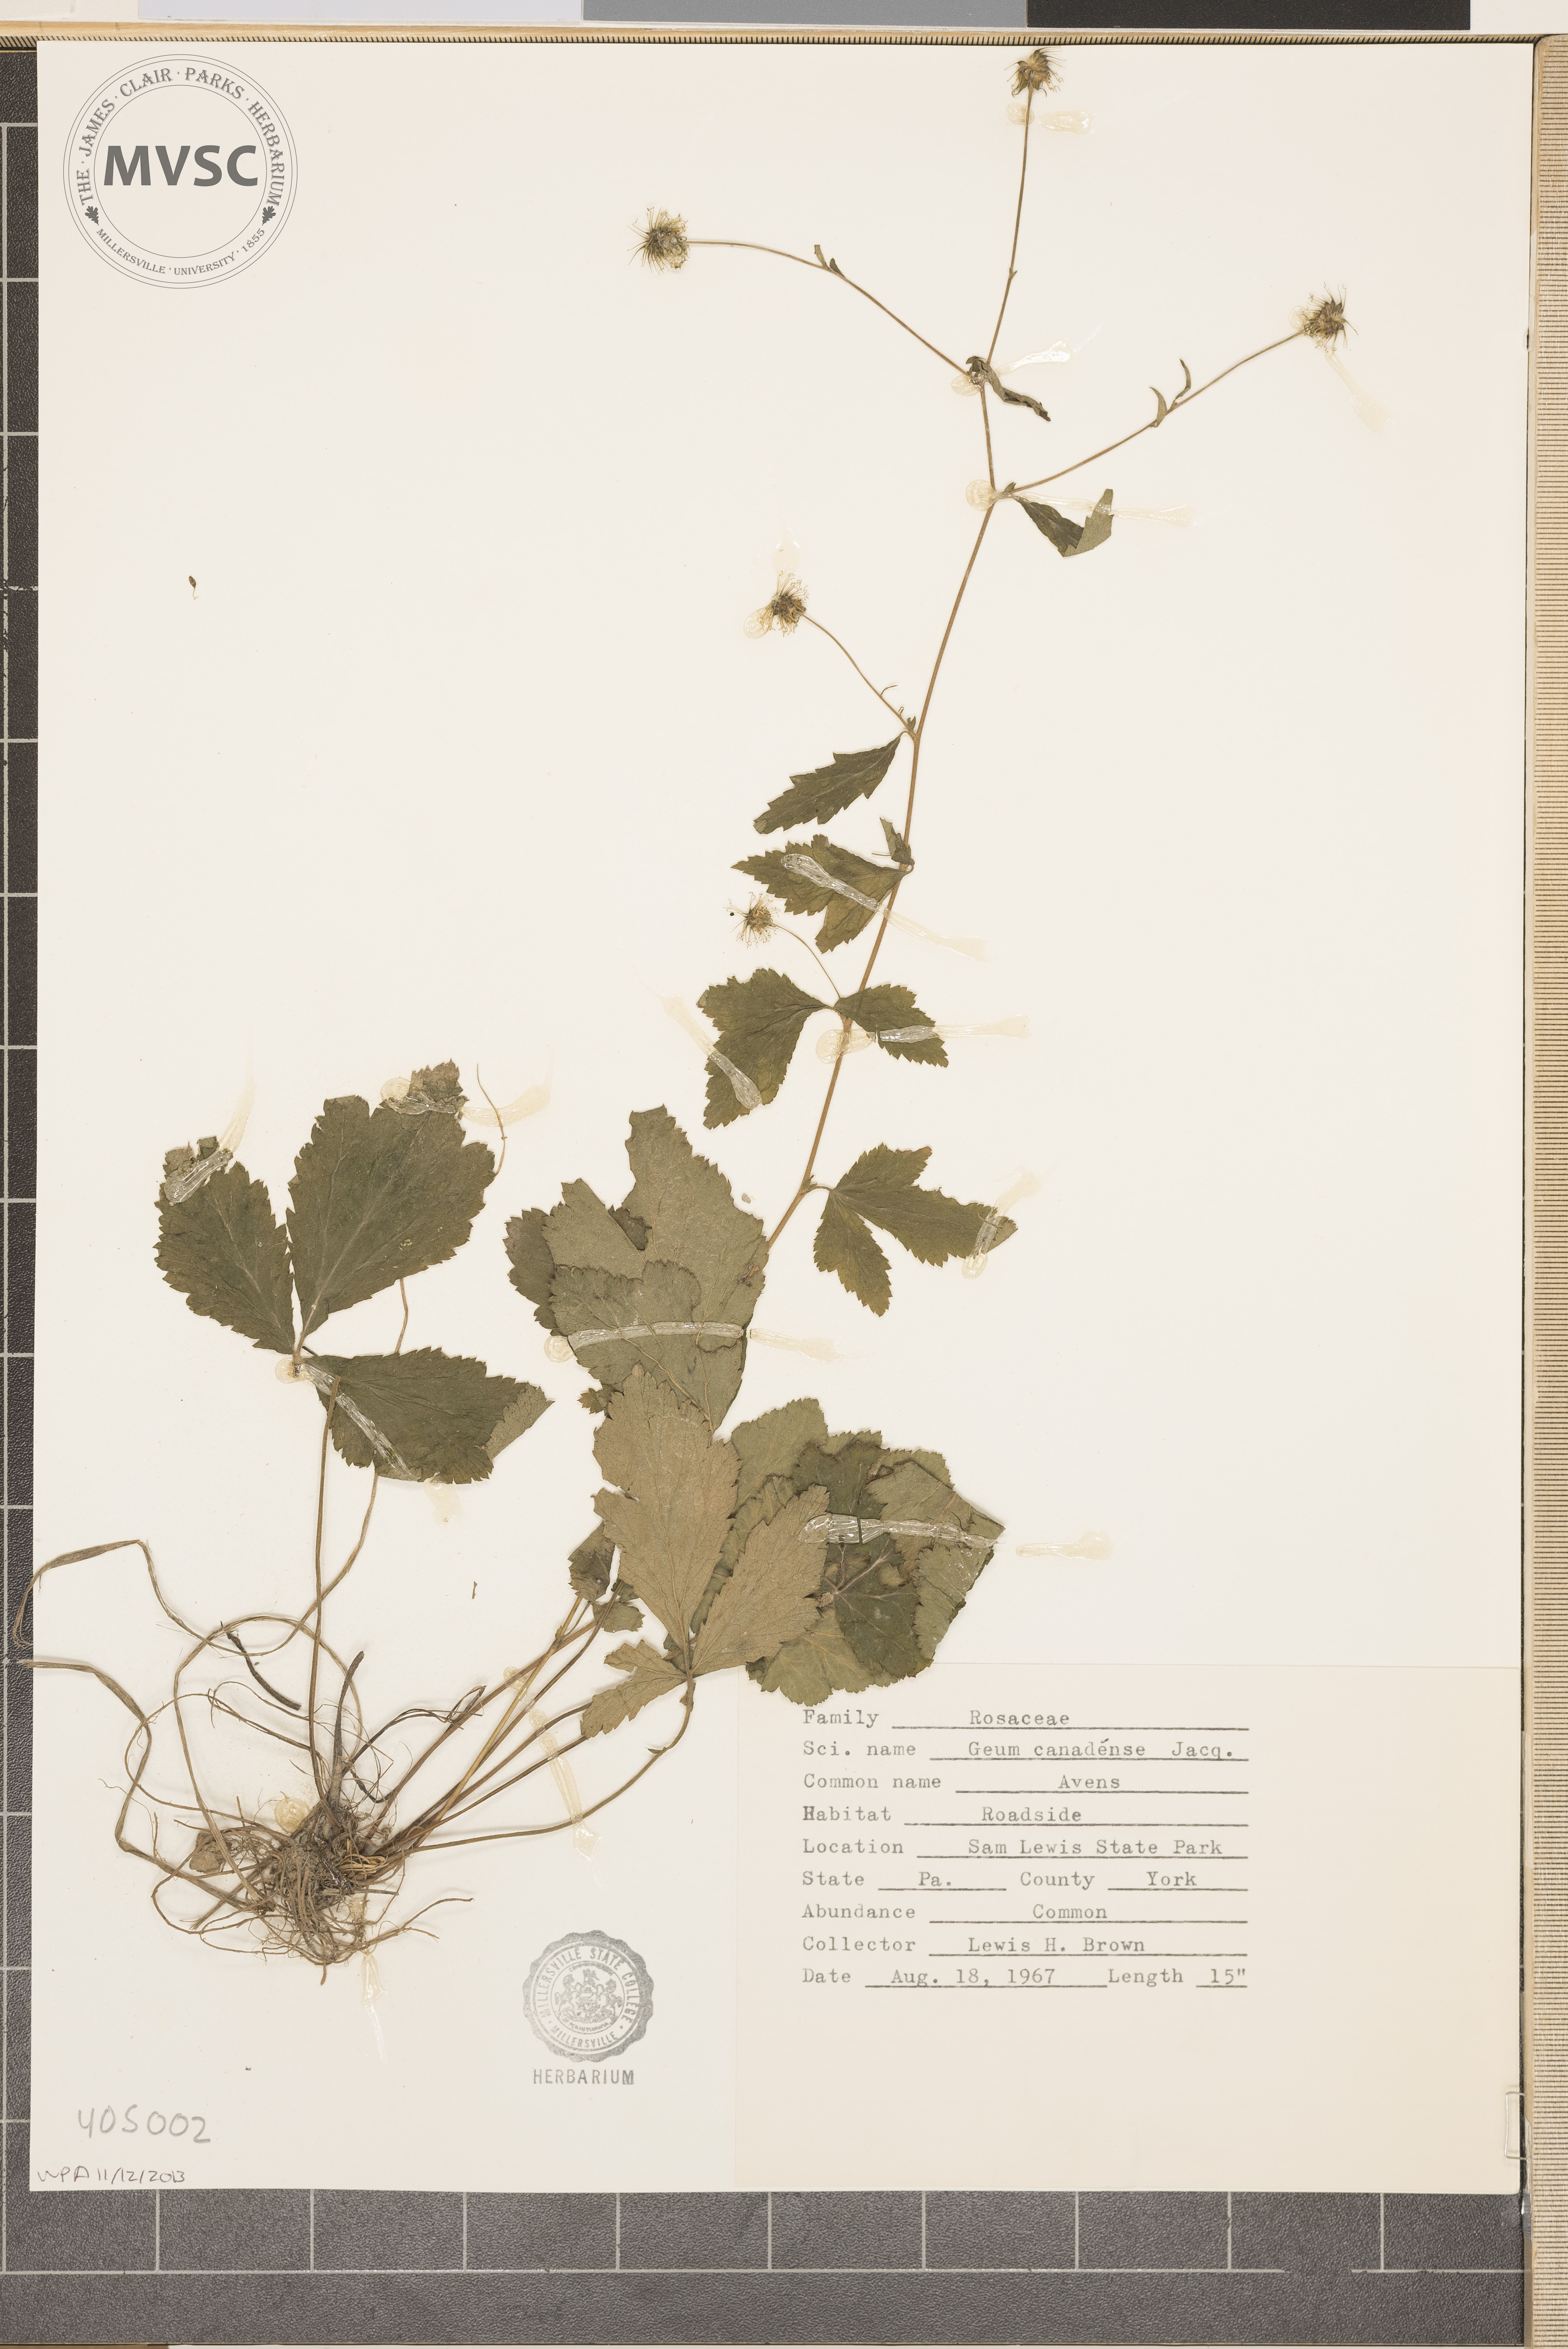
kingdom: Plantae
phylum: Tracheophyta
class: Magnoliopsida
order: Rosales
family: Rosaceae
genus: Geum
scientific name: Geum canadense
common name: Avens
